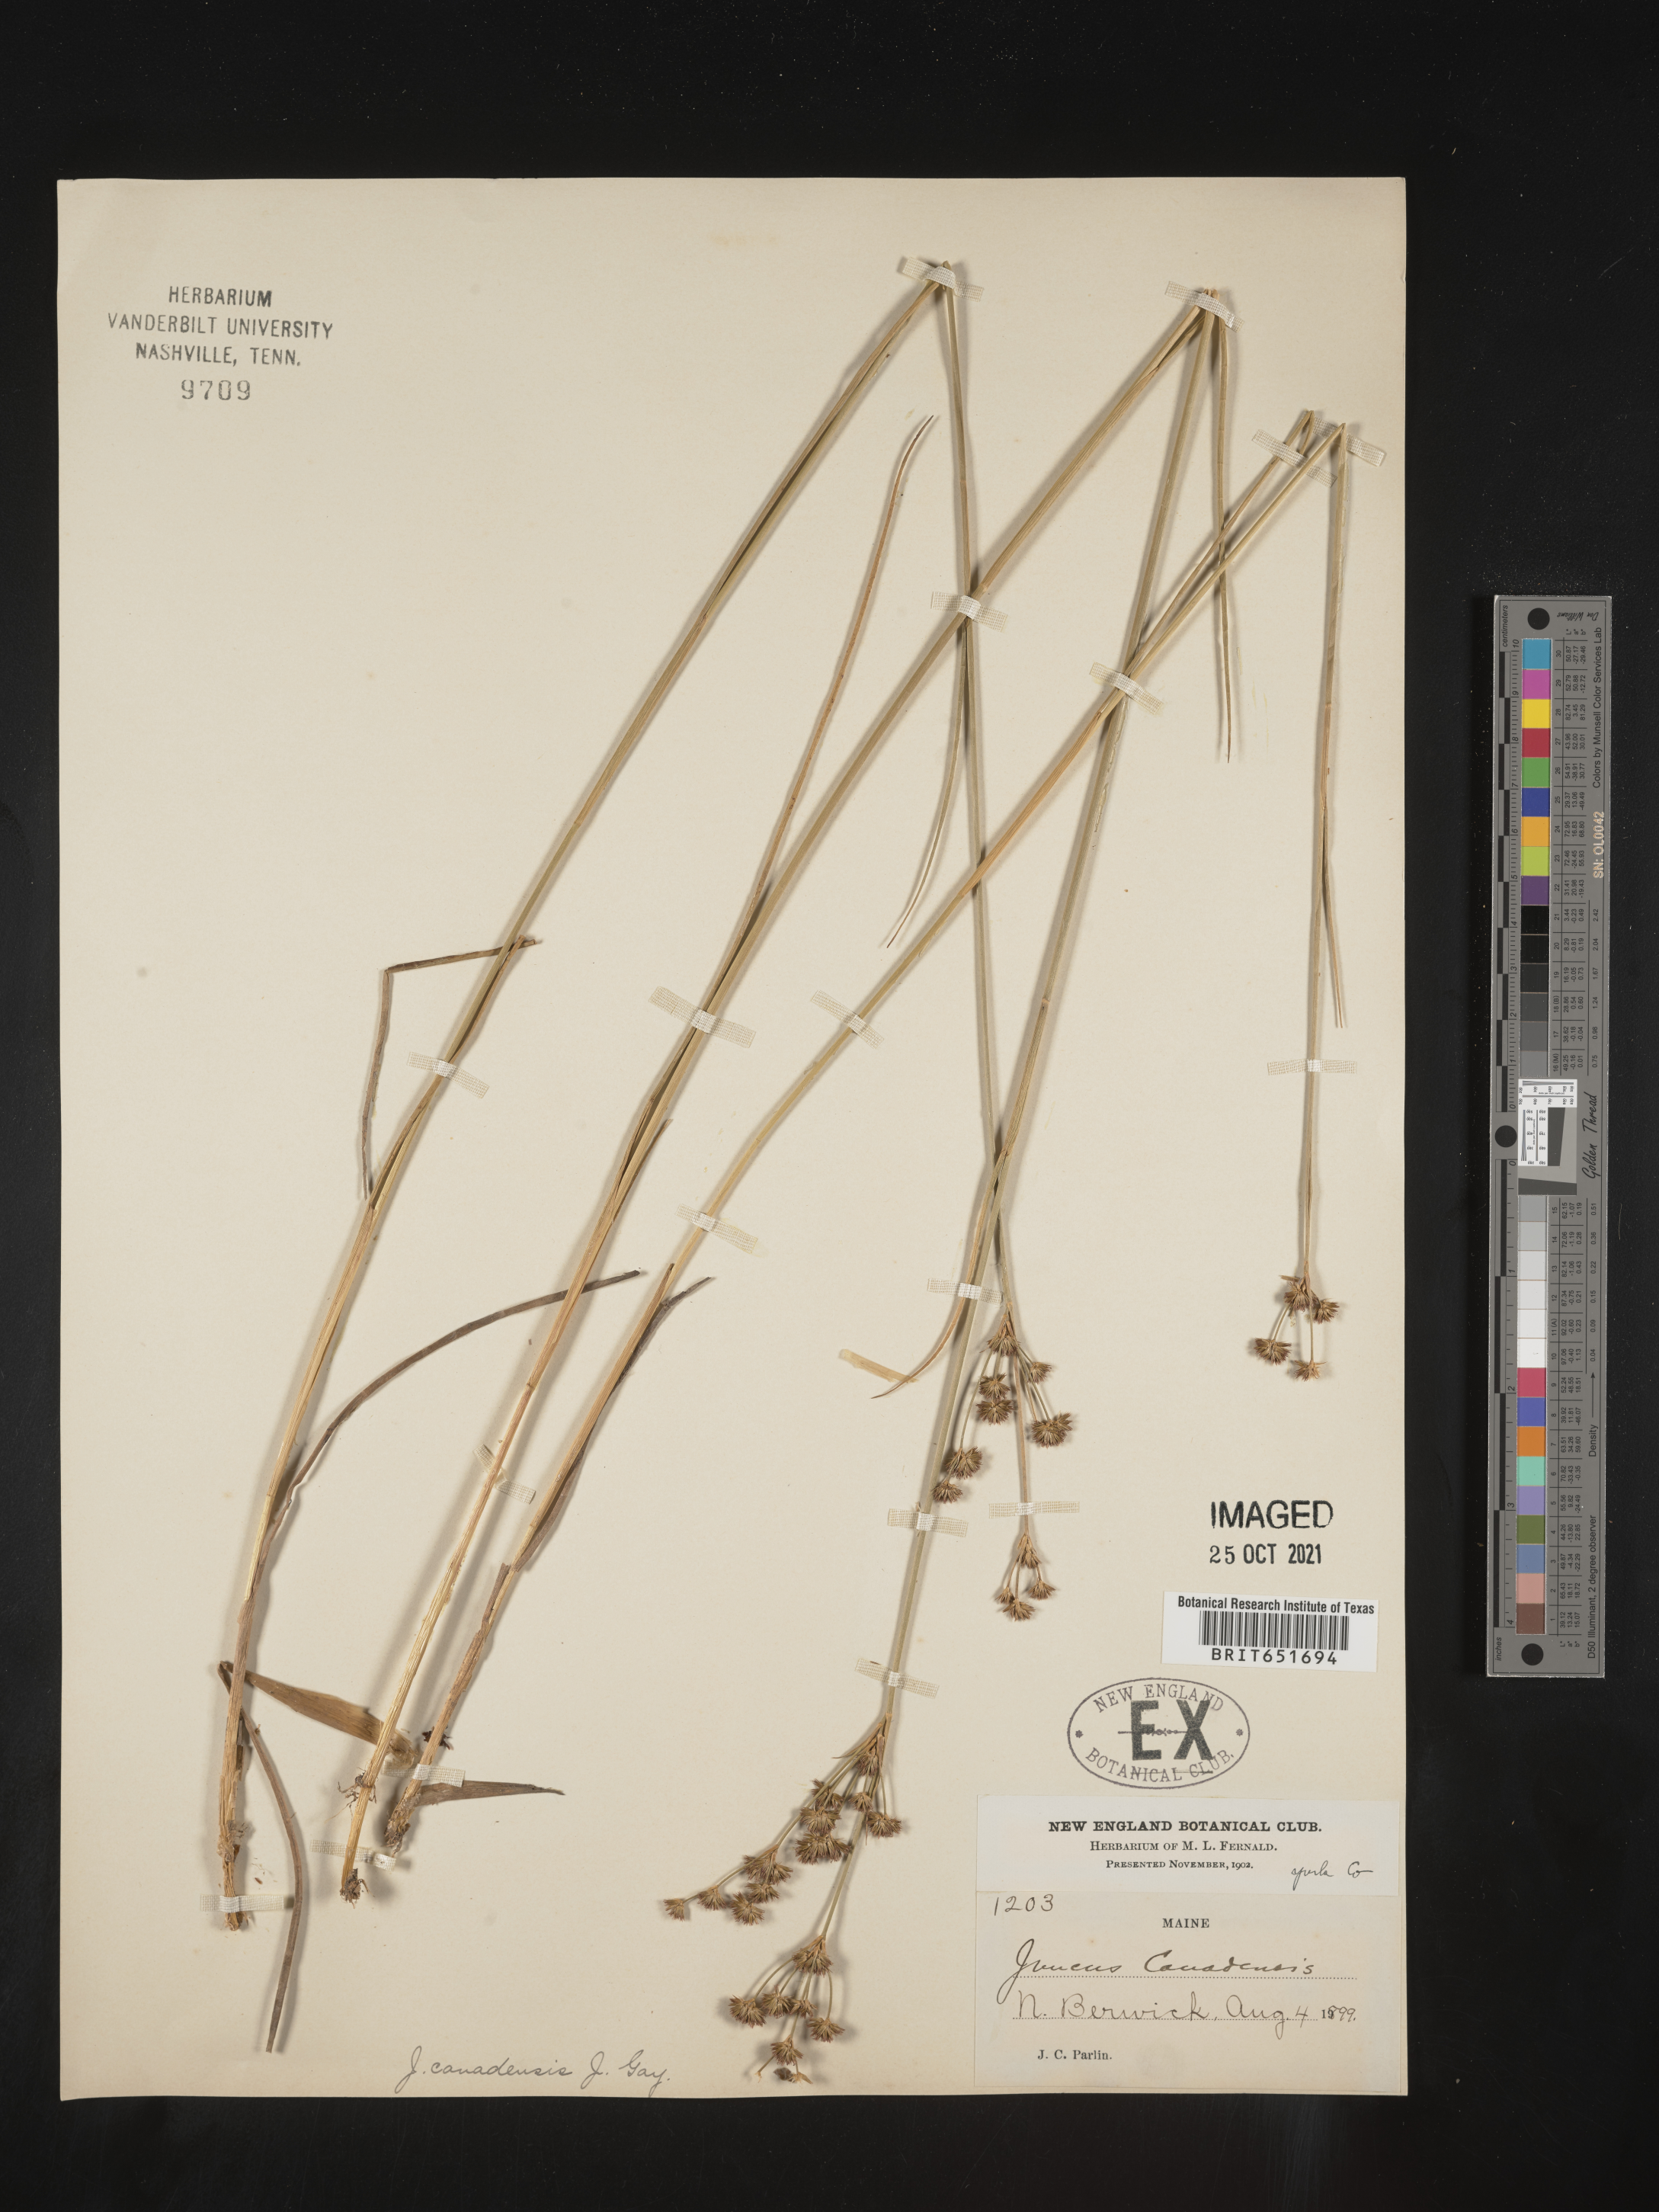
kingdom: Plantae
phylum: Tracheophyta
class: Liliopsida
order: Poales
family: Juncaceae
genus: Juncus
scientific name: Juncus canadensis
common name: Canada rush
